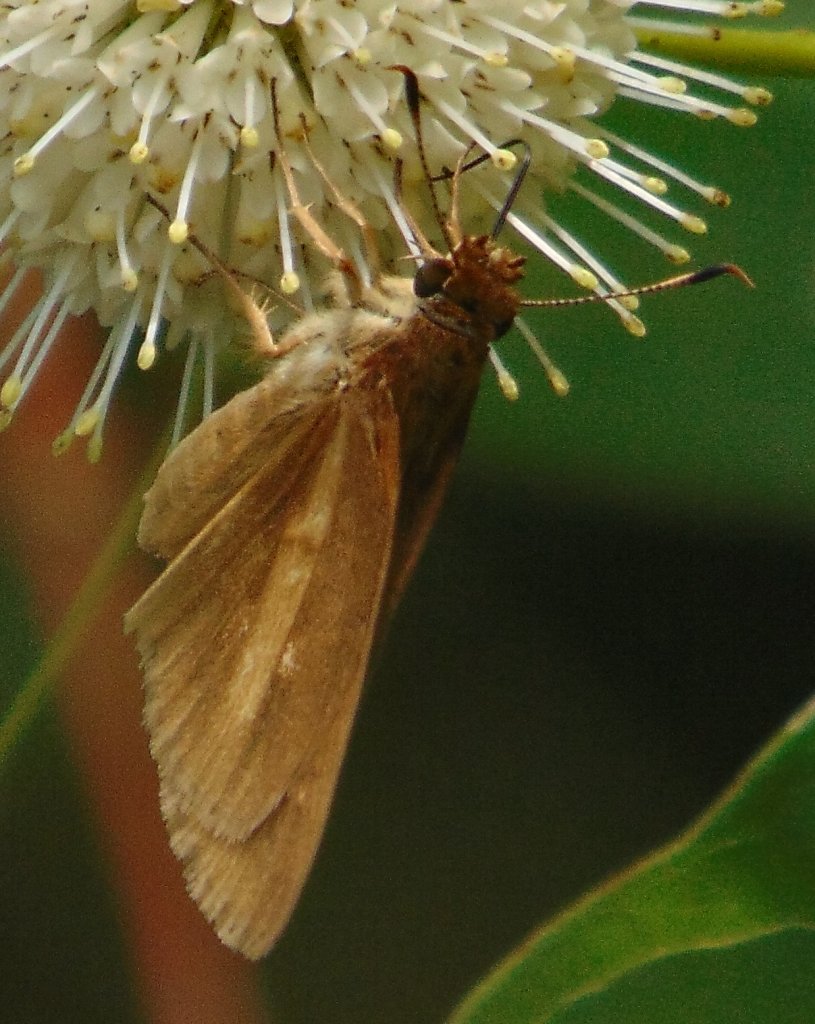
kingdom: Animalia
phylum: Arthropoda
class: Insecta
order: Lepidoptera
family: Hesperiidae
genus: Poanes
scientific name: Poanes viator
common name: Broad-winged Skipper
